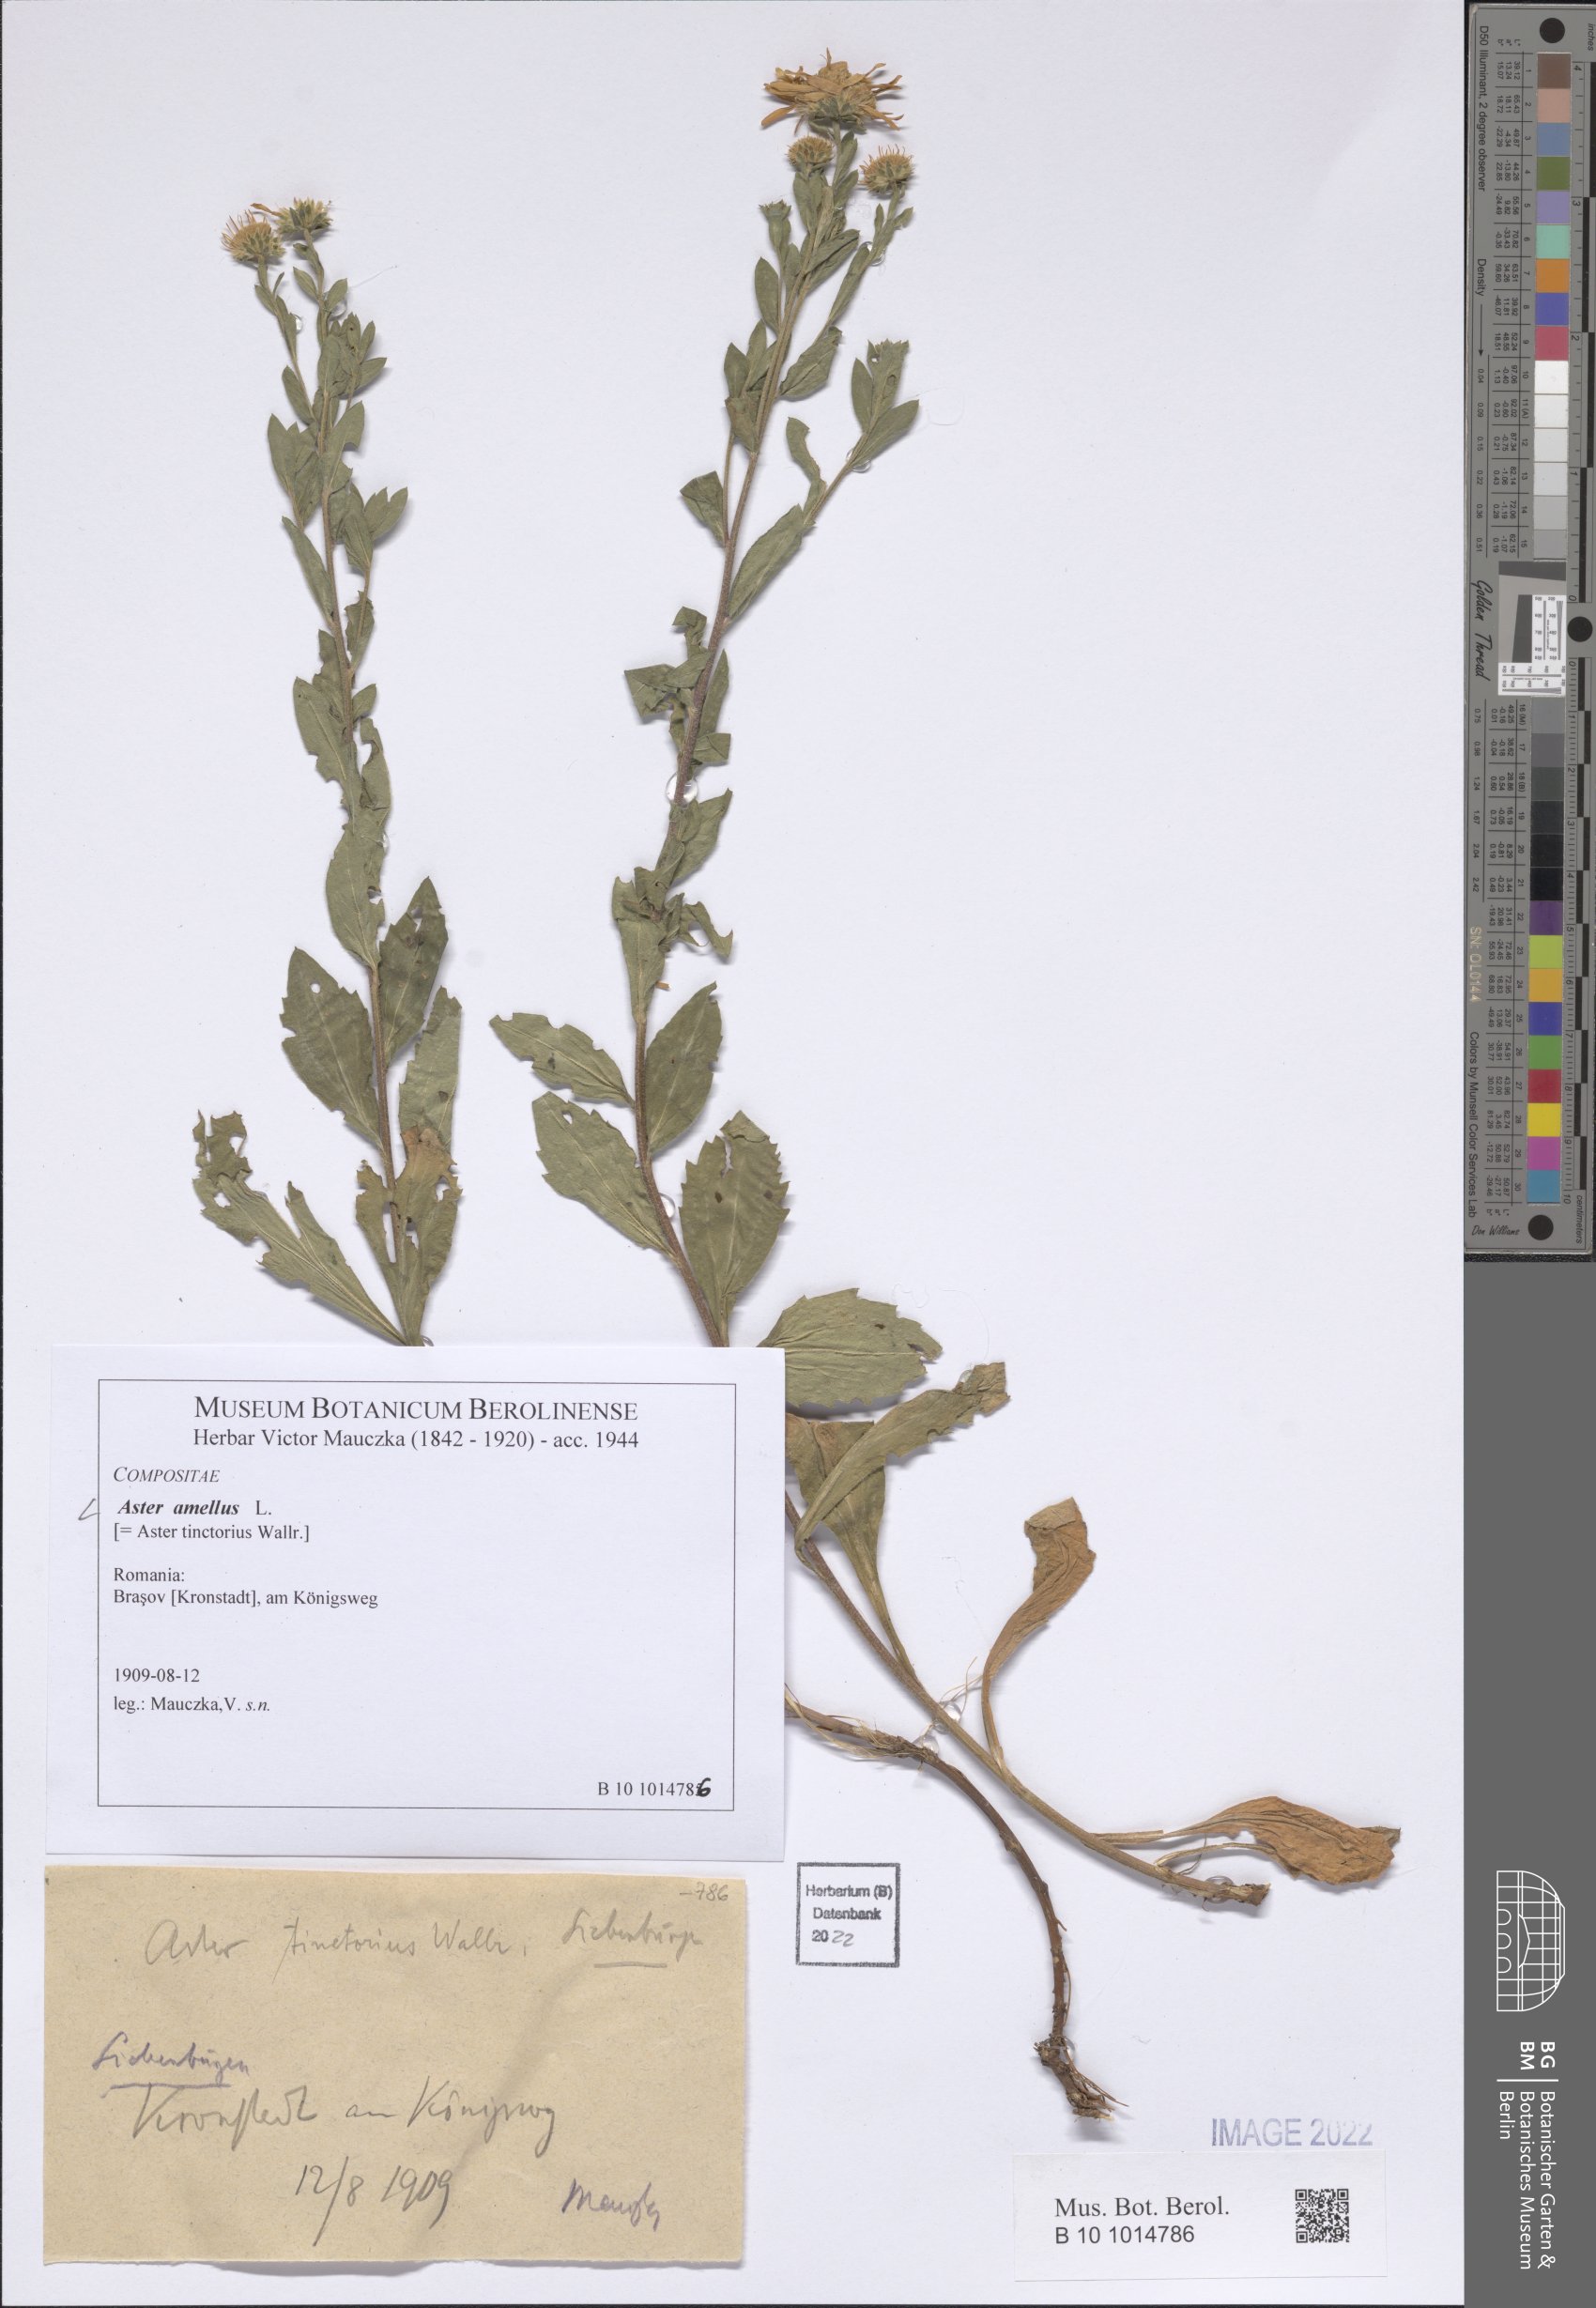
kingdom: Plantae
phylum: Tracheophyta
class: Magnoliopsida
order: Asterales
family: Asteraceae
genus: Aster
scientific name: Aster amellus
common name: European michaelmas daisy
